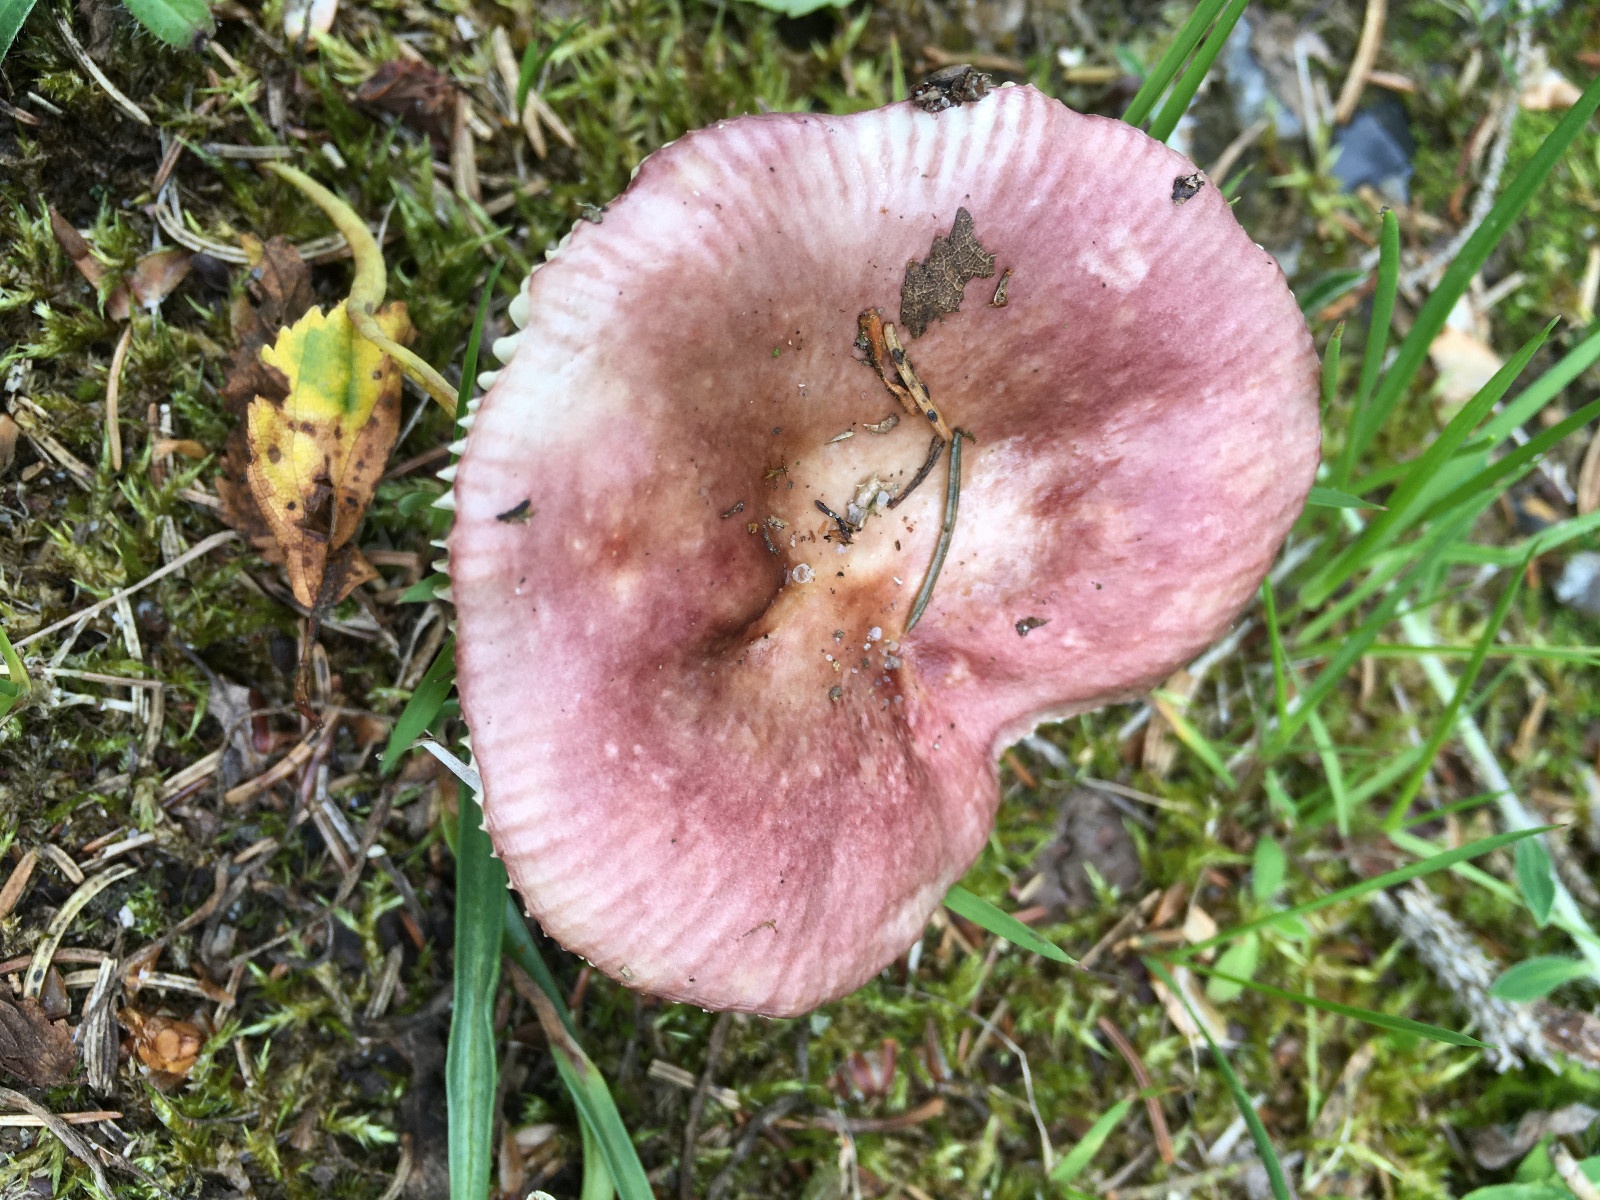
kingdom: Fungi
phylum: Basidiomycota
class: Agaricomycetes
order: Russulales
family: Russulaceae
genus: Russula
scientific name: Russula nauseosa
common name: spinkel skørhat
